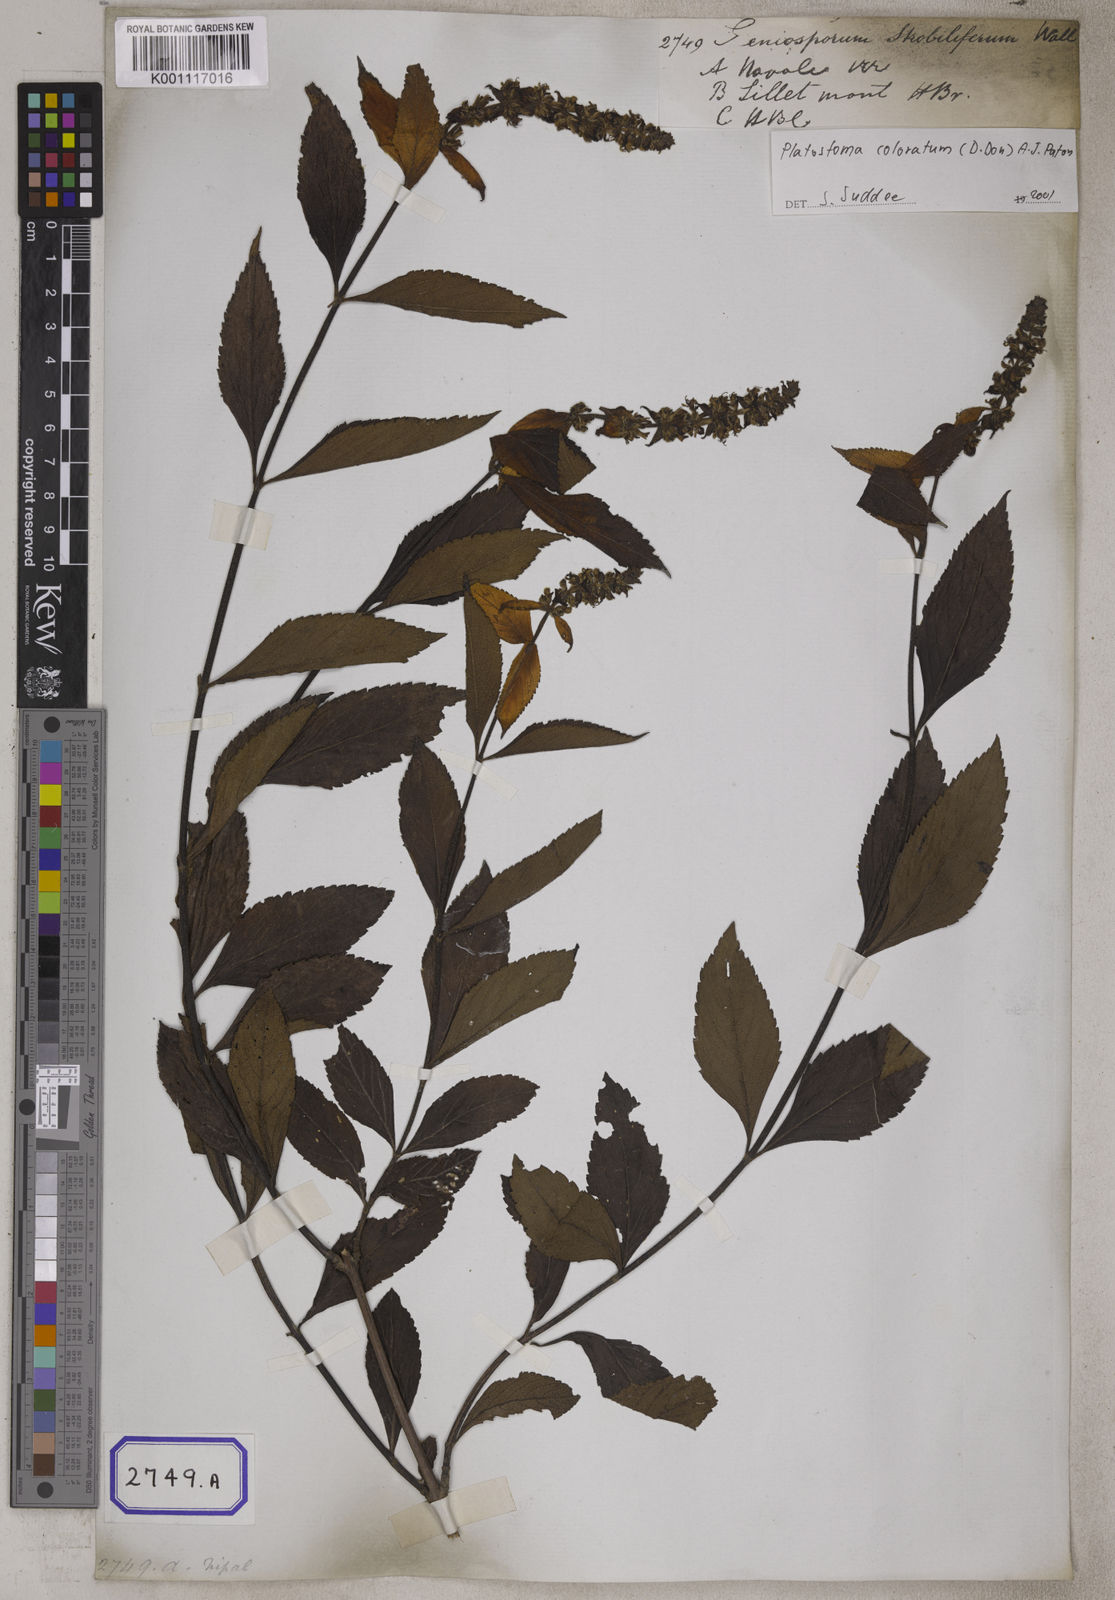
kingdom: Plantae
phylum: Tracheophyta
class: Magnoliopsida
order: Lamiales
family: Lamiaceae
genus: Platostoma
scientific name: Platostoma
